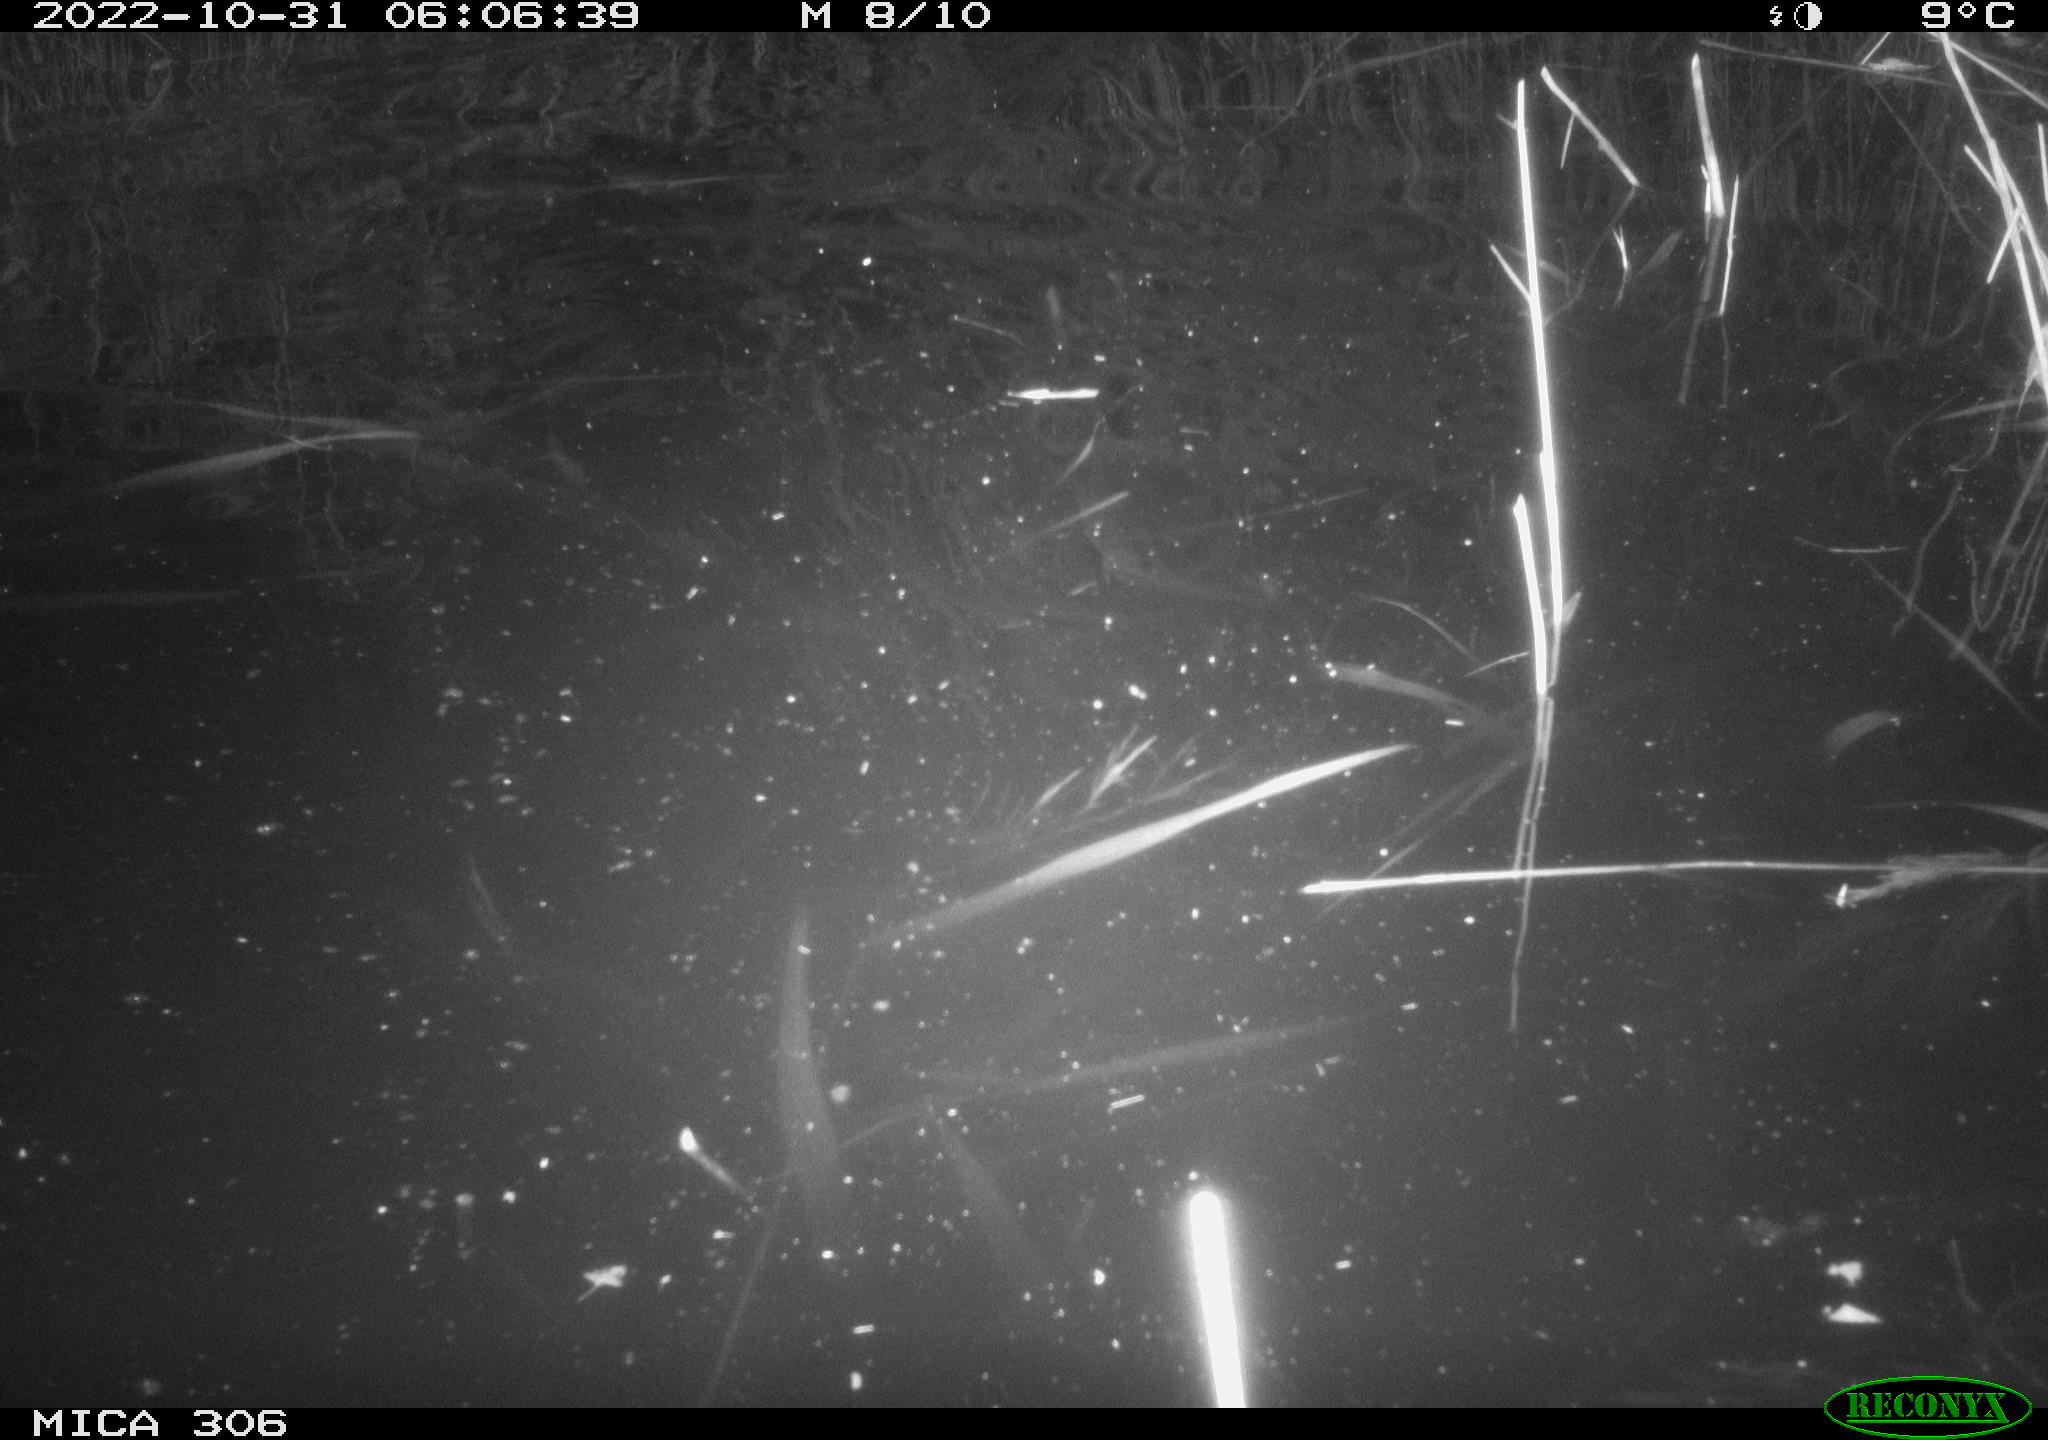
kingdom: Animalia
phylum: Chordata
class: Mammalia
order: Rodentia
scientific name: Rodentia
